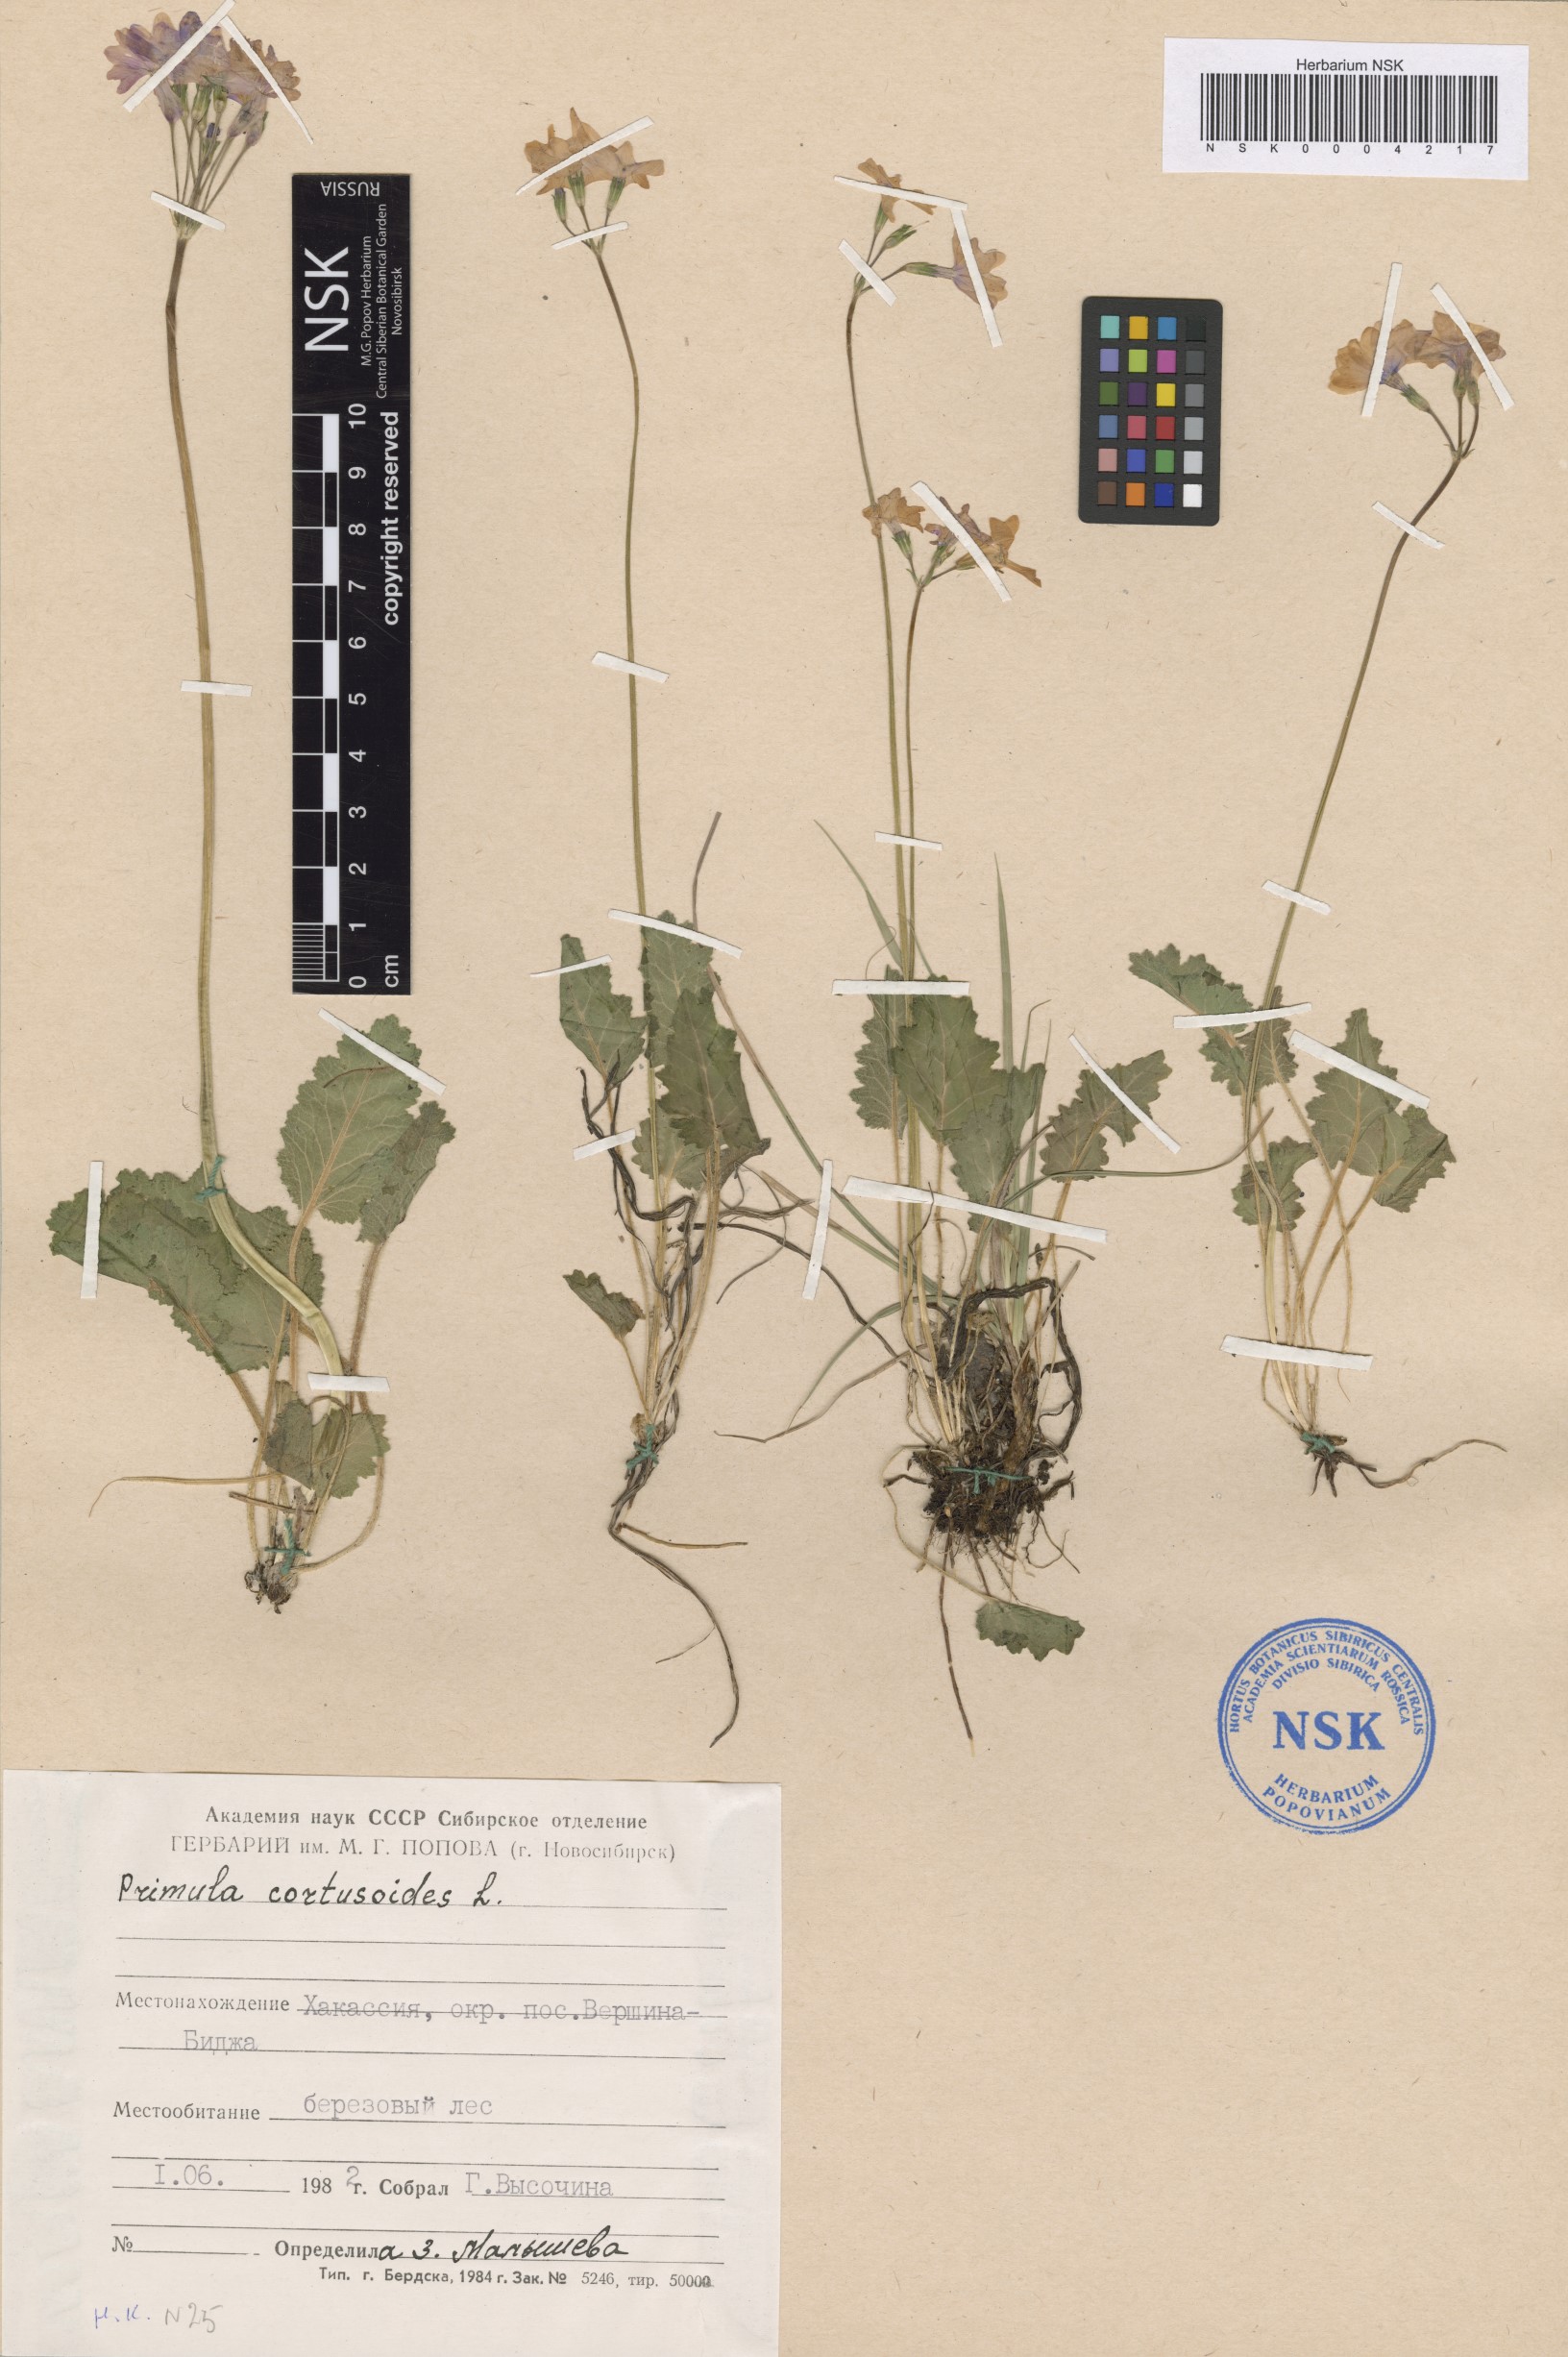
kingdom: Plantae
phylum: Tracheophyta
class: Magnoliopsida
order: Ericales
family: Primulaceae
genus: Primula
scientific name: Primula cortusoides
